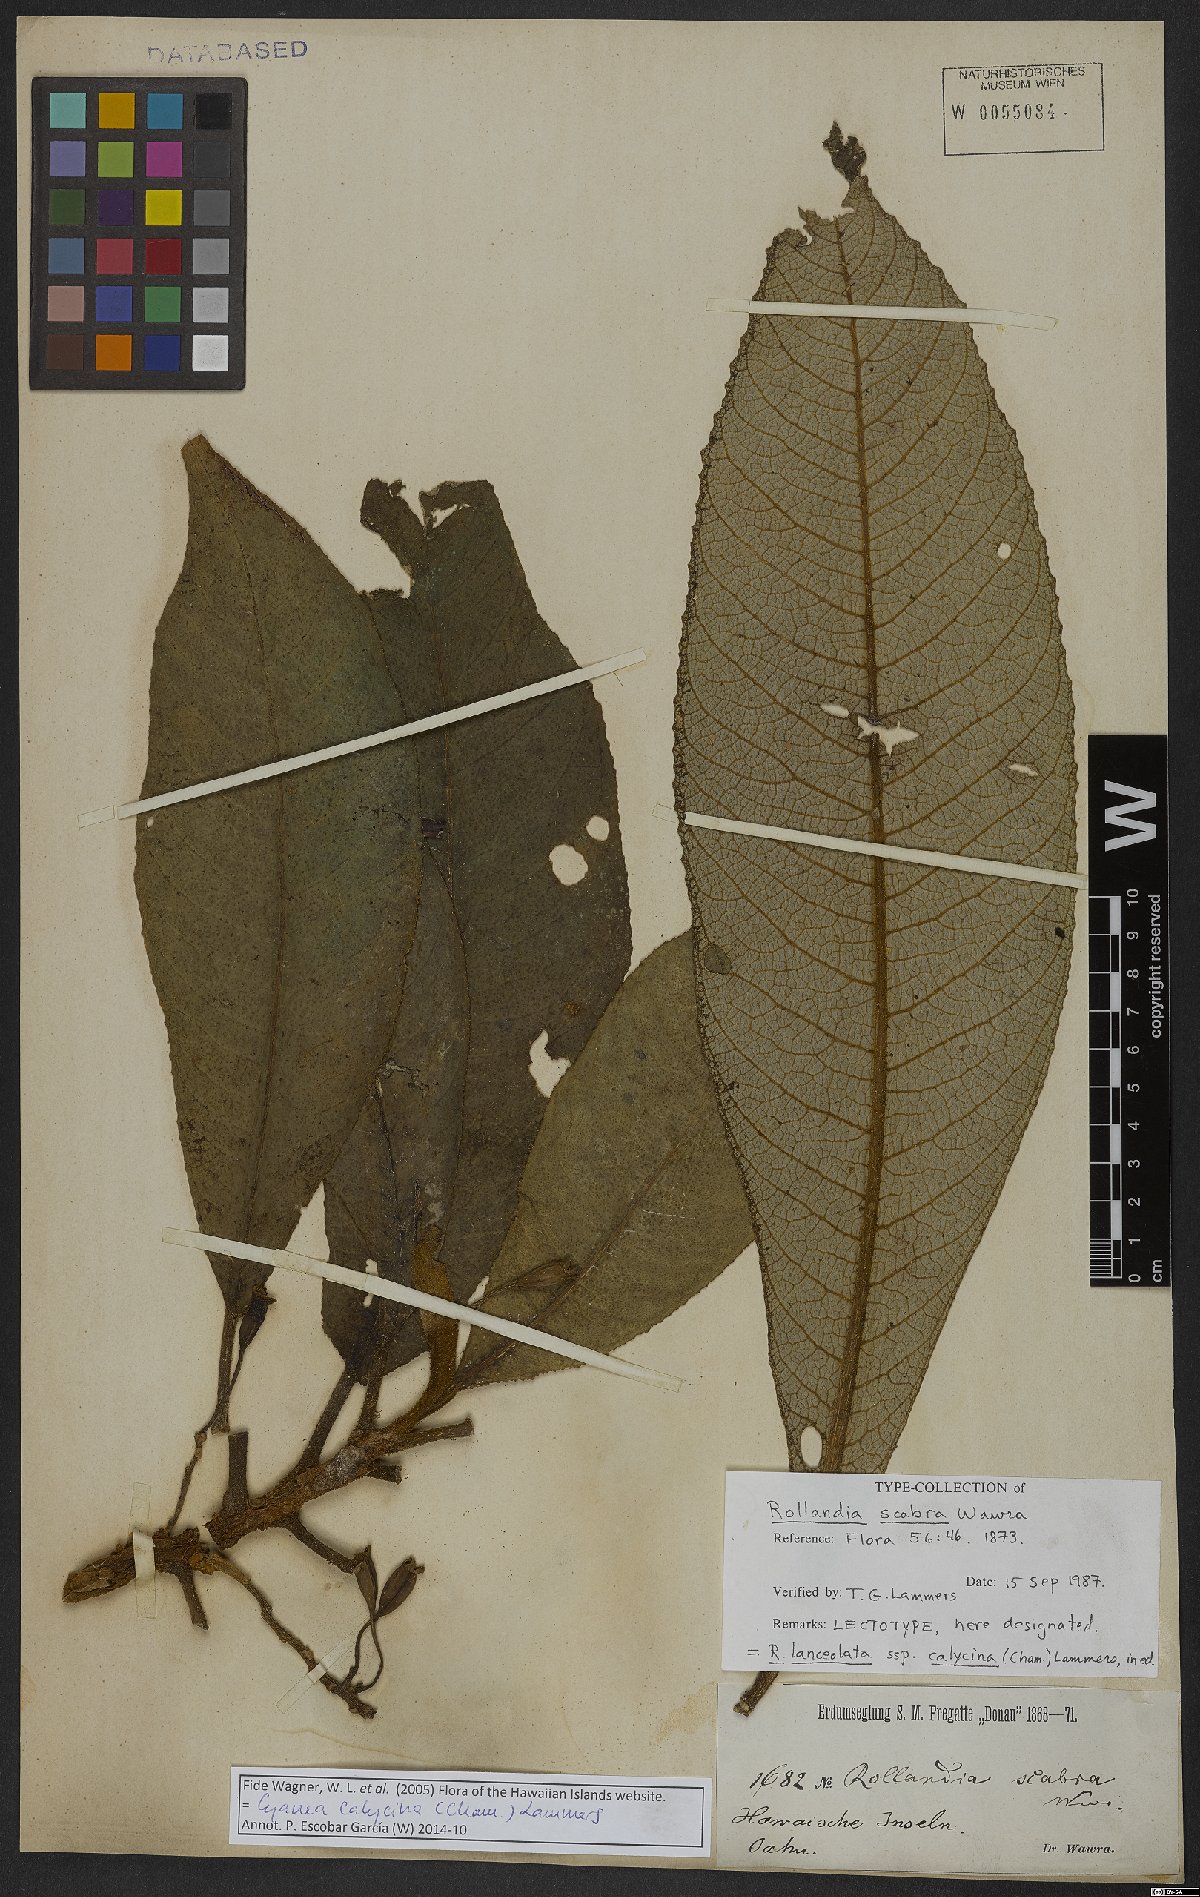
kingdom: Plantae
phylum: Tracheophyta
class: Magnoliopsida
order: Asterales
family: Campanulaceae
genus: Cyanea
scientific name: Cyanea calycina
